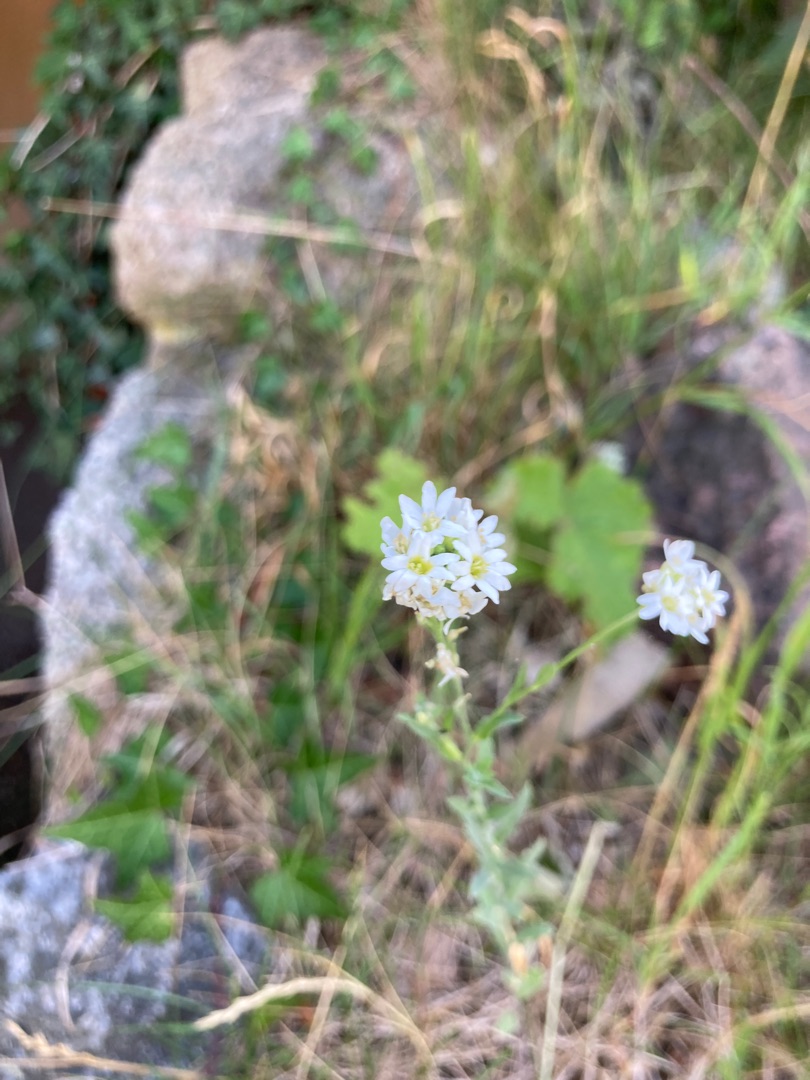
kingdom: Plantae
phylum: Tracheophyta
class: Magnoliopsida
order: Brassicales
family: Brassicaceae
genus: Berteroa
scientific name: Berteroa incana
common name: Kløvplade
